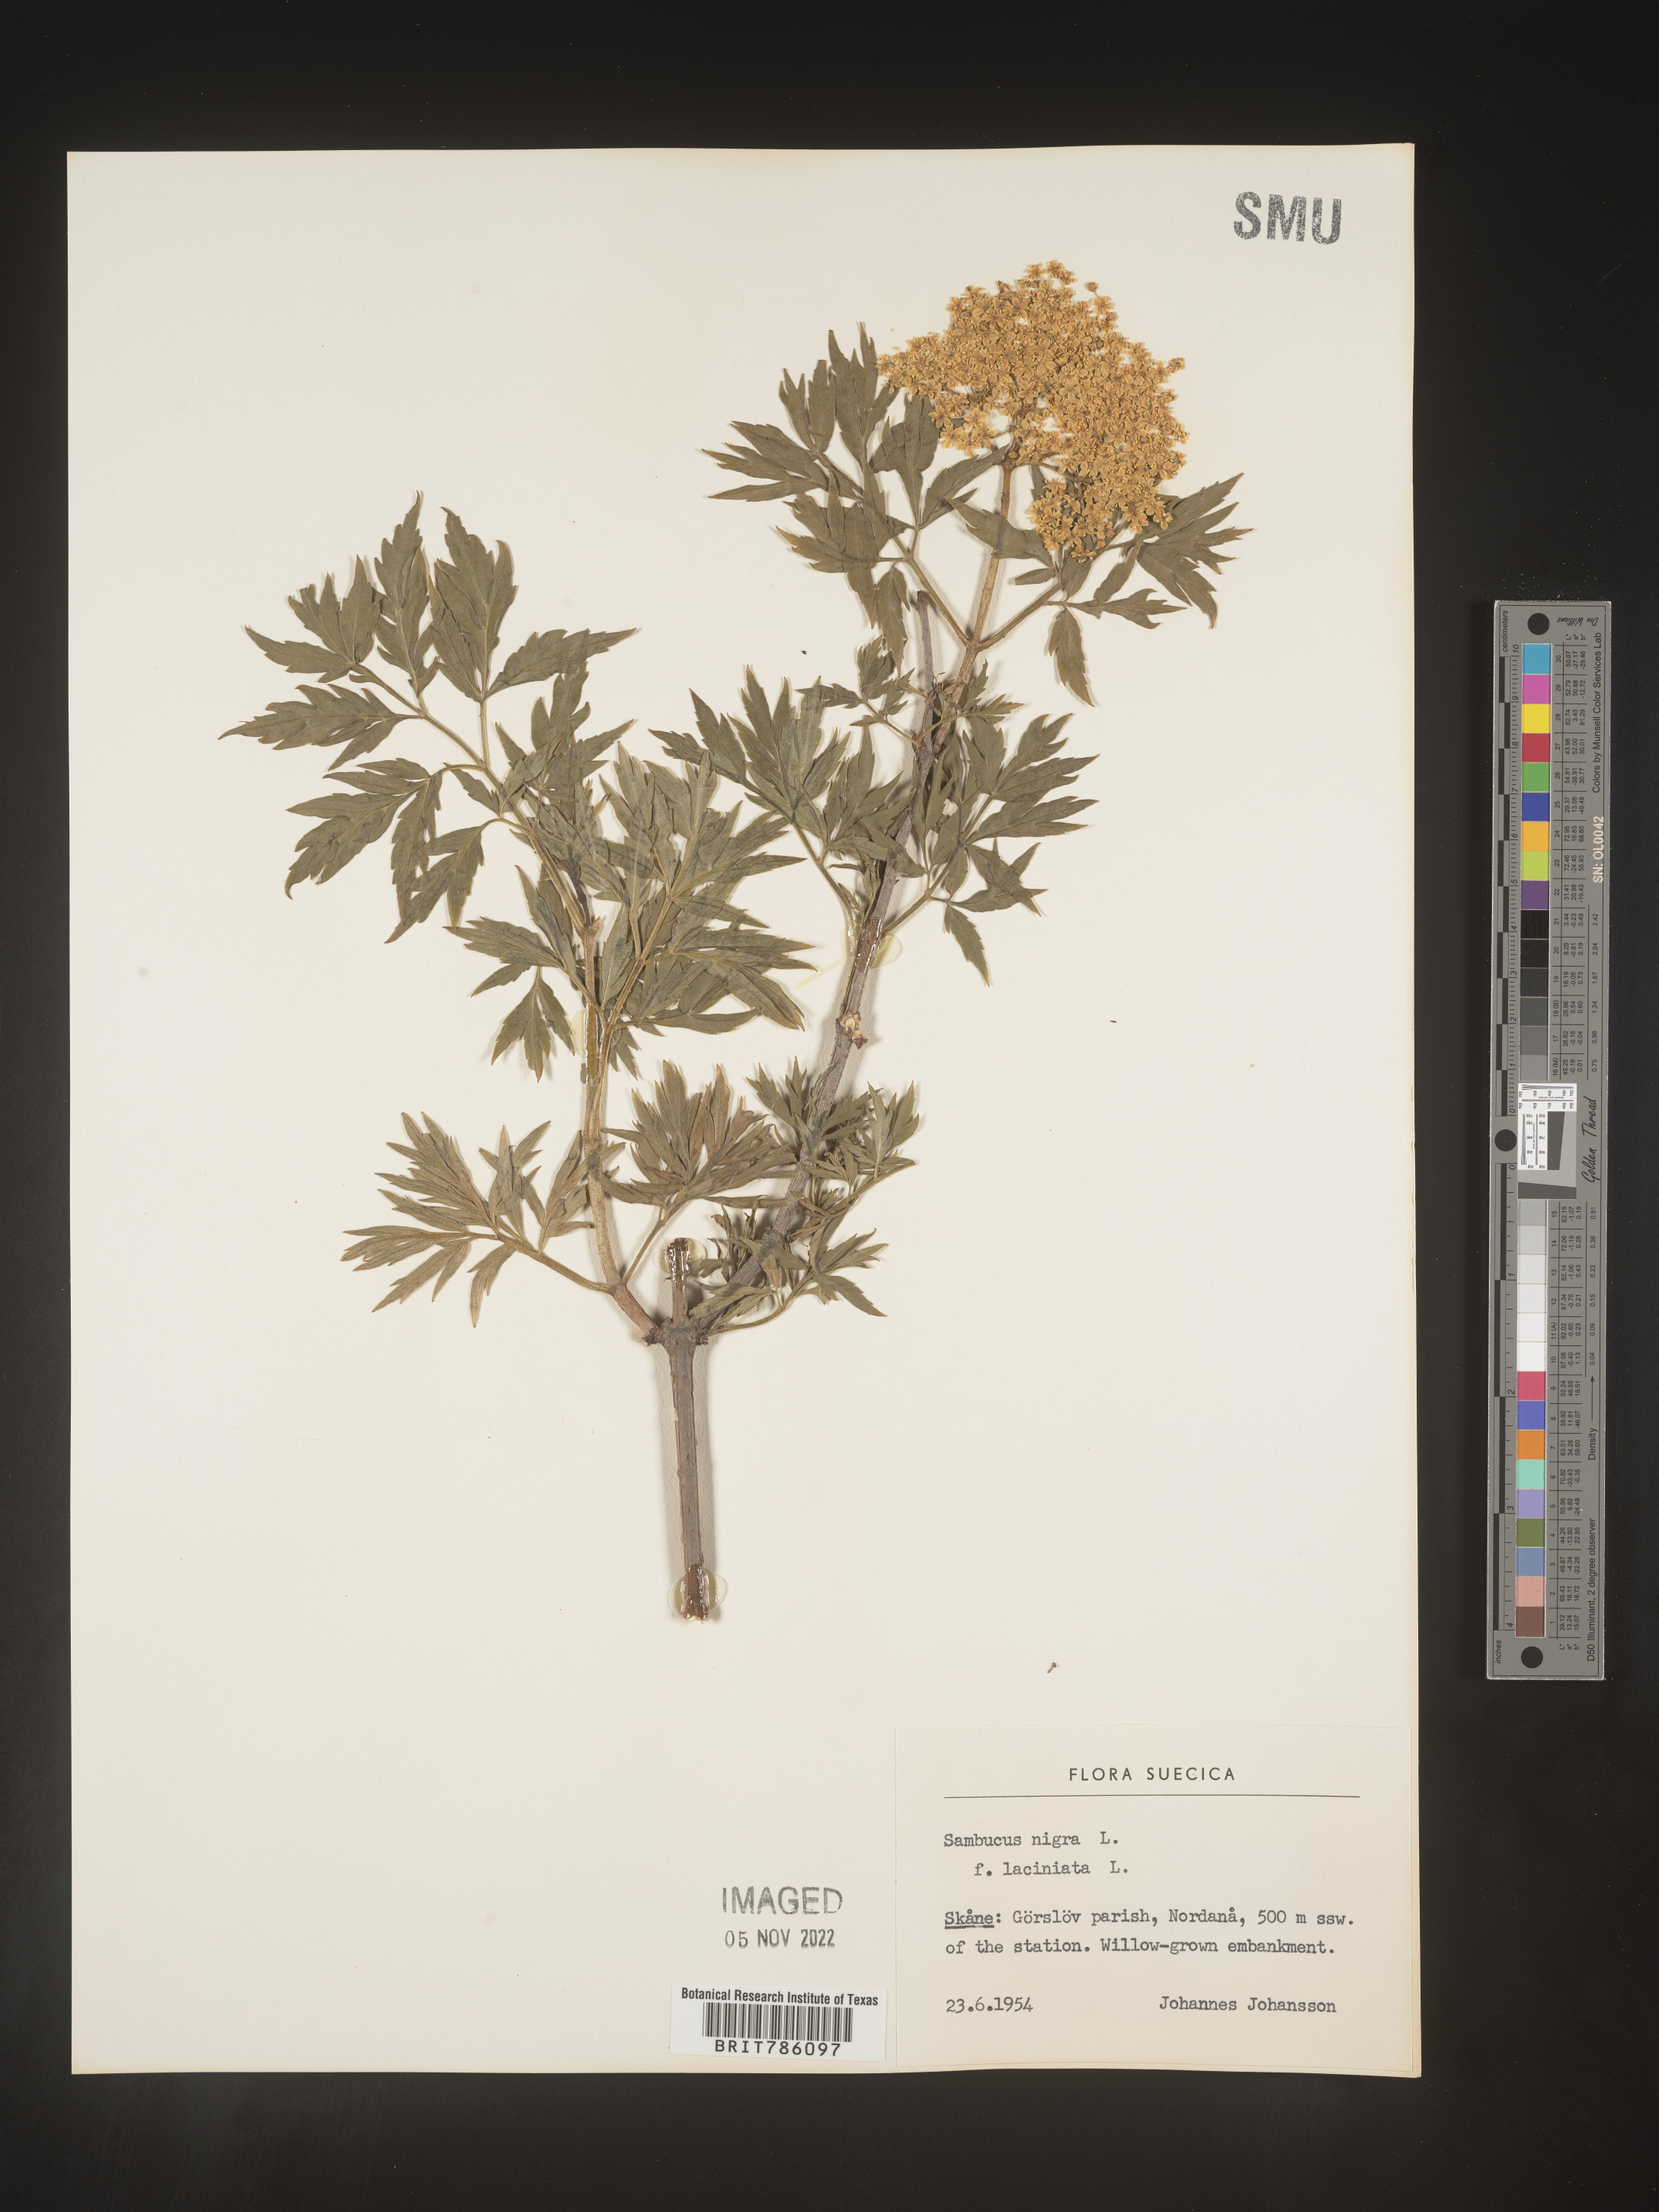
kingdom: Plantae
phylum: Tracheophyta
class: Magnoliopsida
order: Dipsacales
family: Viburnaceae
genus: Sambucus
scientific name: Sambucus
